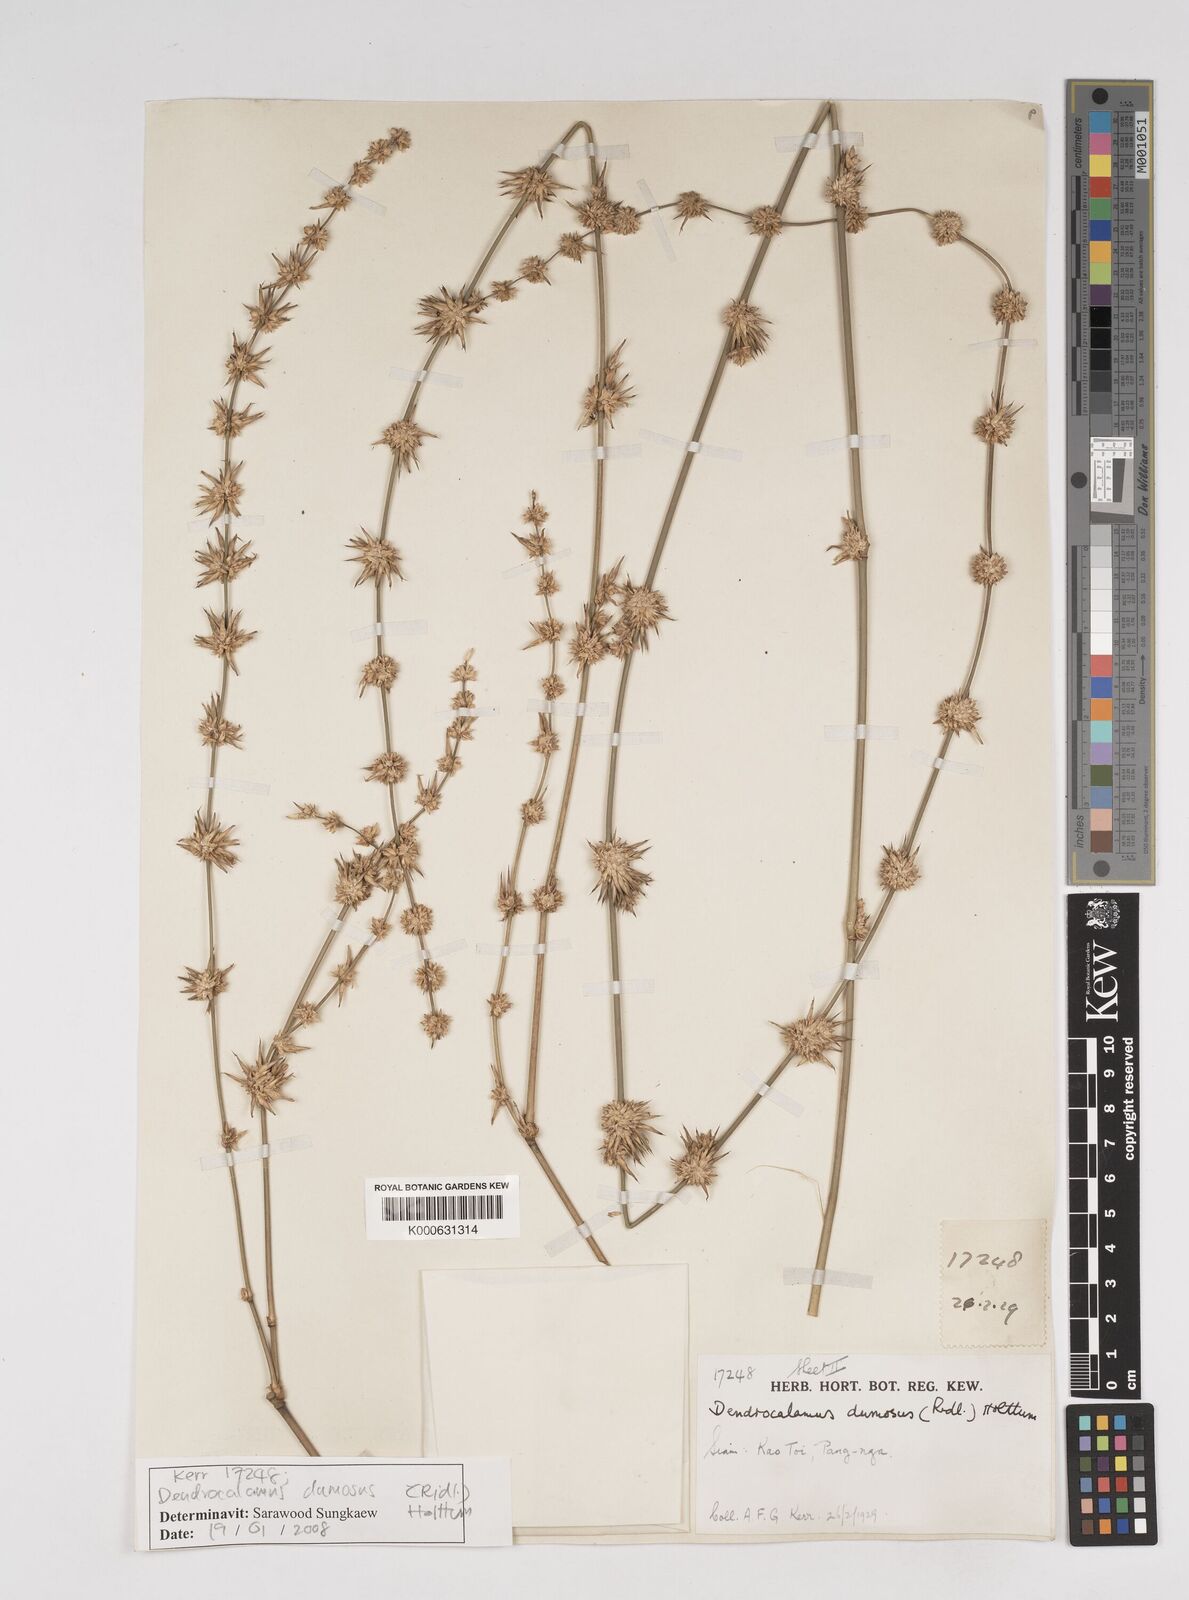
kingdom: Plantae
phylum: Tracheophyta
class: Liliopsida
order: Poales
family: Poaceae
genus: Dendrocalamus
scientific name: Dendrocalamus dumosus
